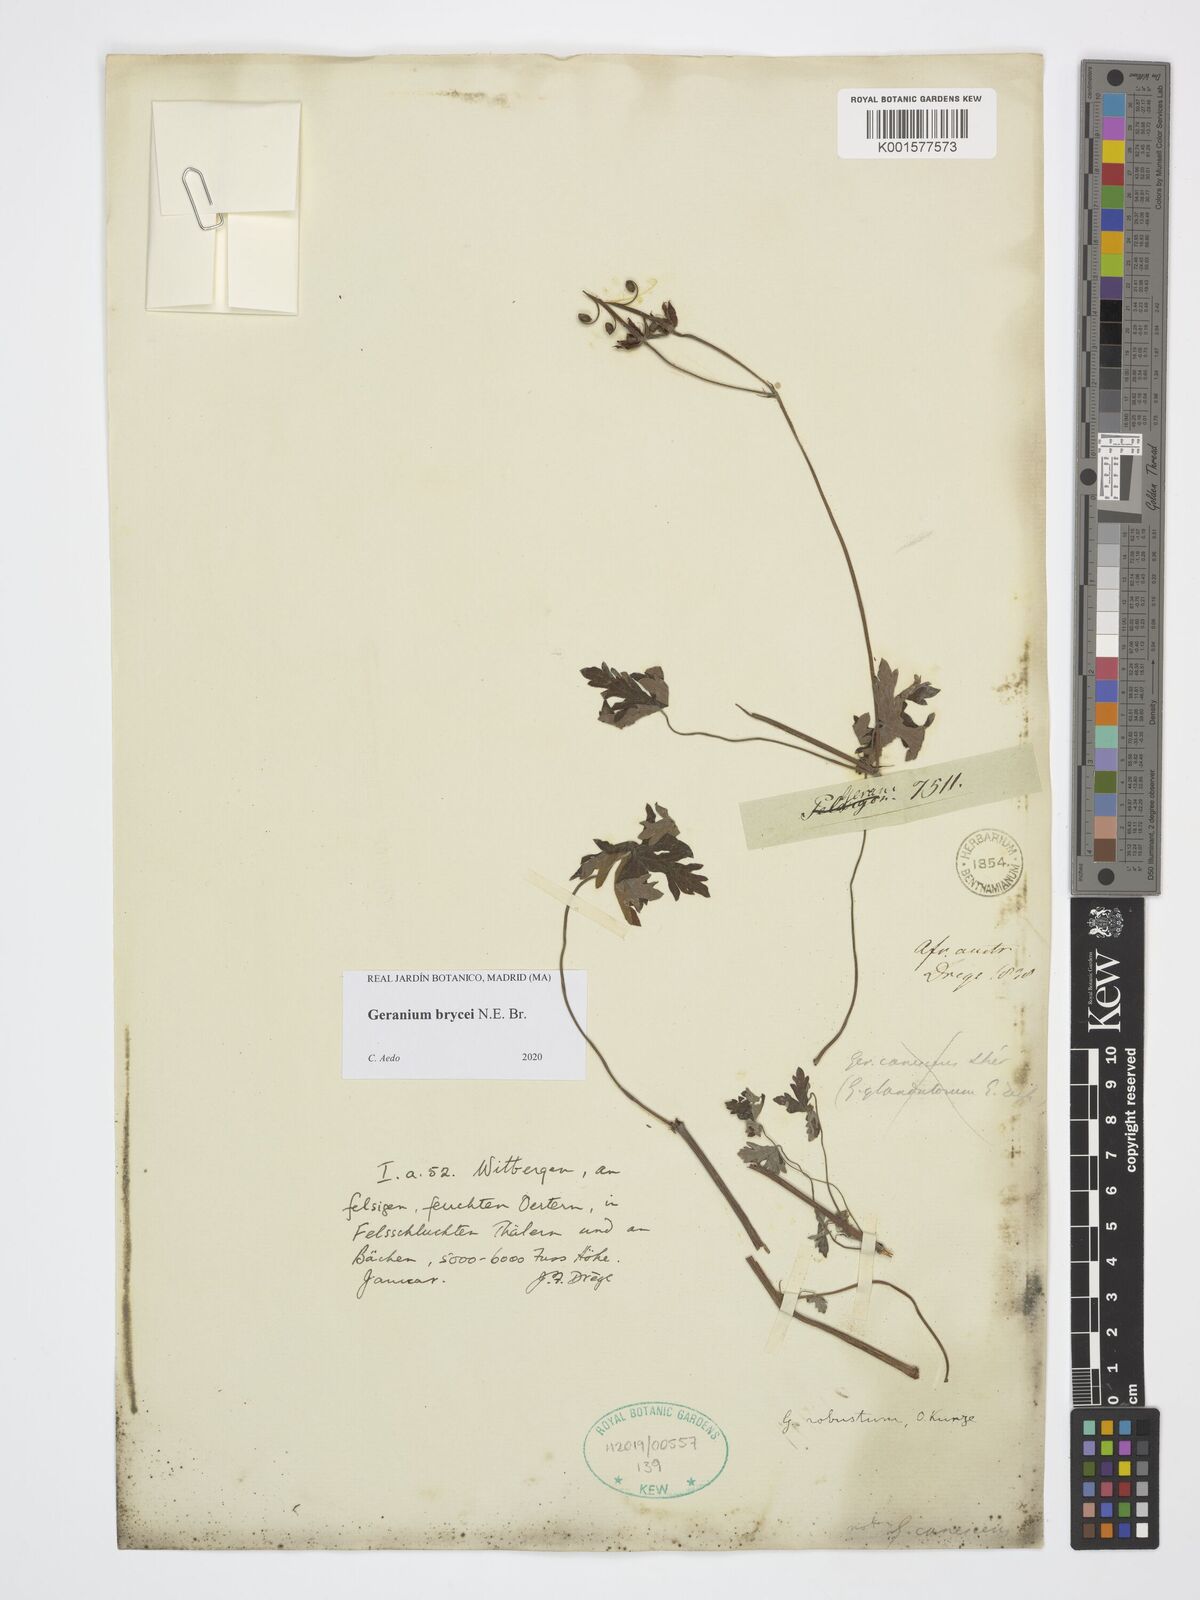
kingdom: Plantae
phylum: Tracheophyta
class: Magnoliopsida
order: Geraniales
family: Geraniaceae
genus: Geranium
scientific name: Geranium brycei
